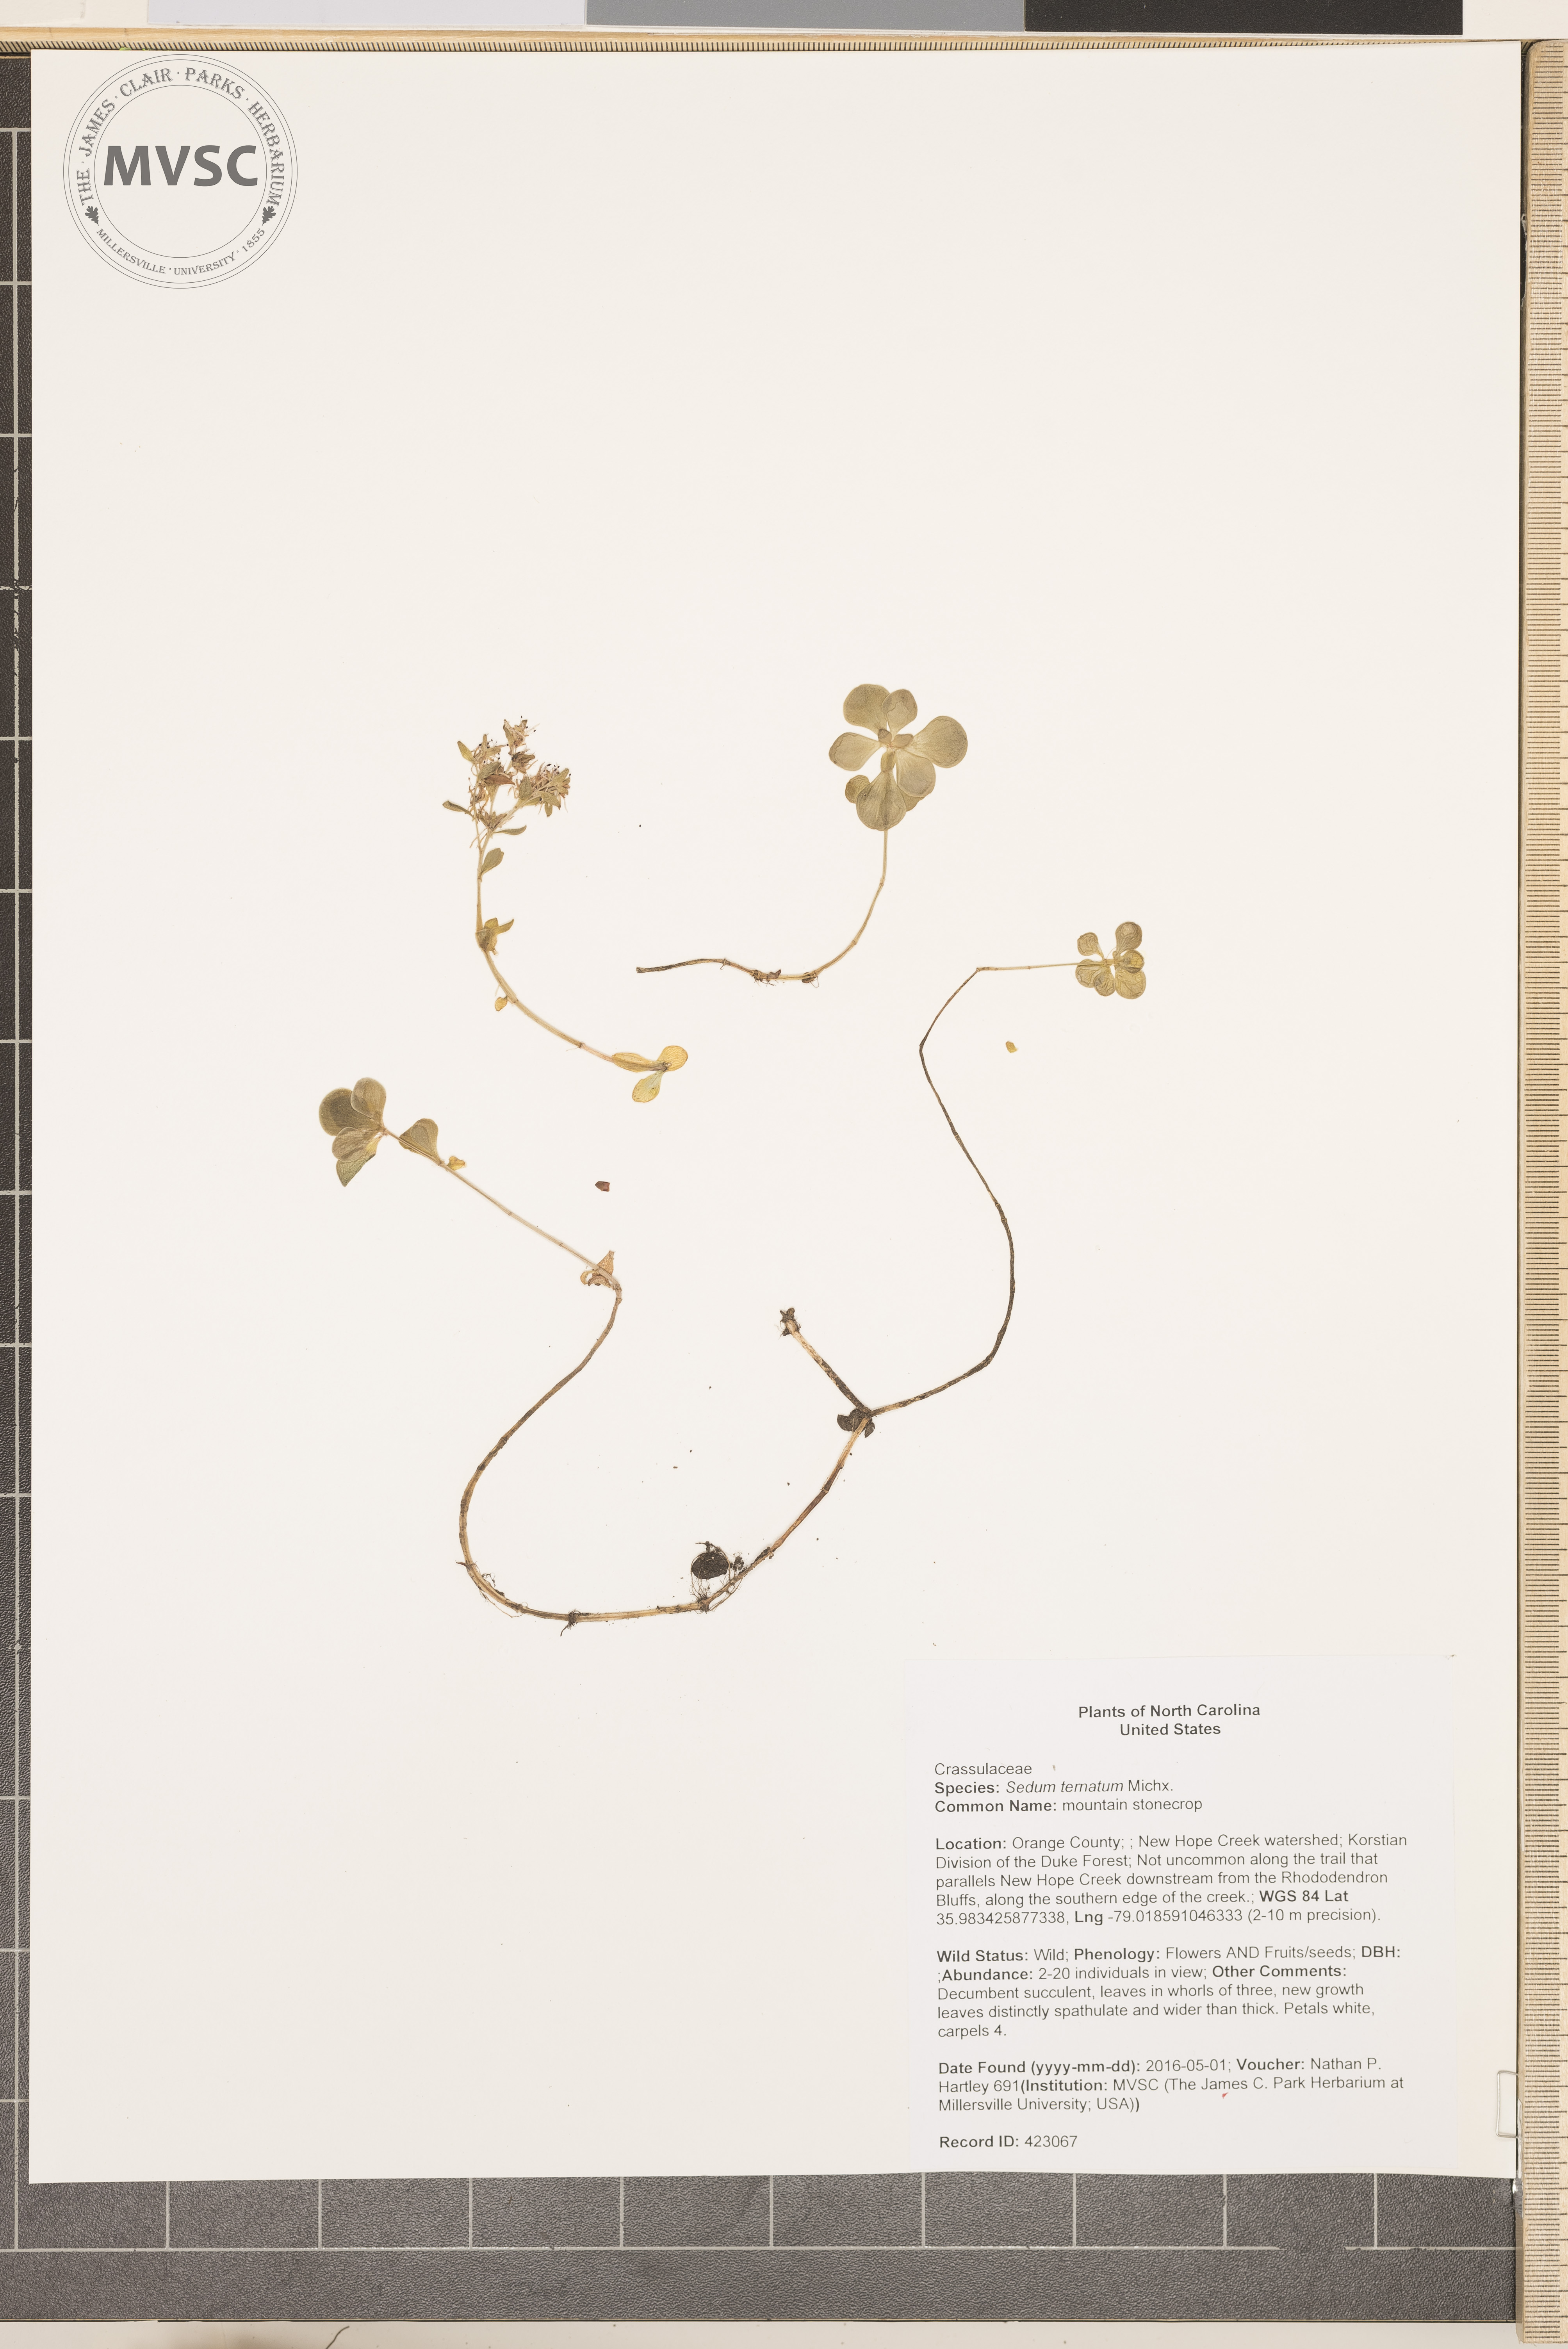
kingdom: Plantae
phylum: Tracheophyta
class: Magnoliopsida
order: Saxifragales
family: Crassulaceae
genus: Sedum
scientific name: Sedum ternatum
